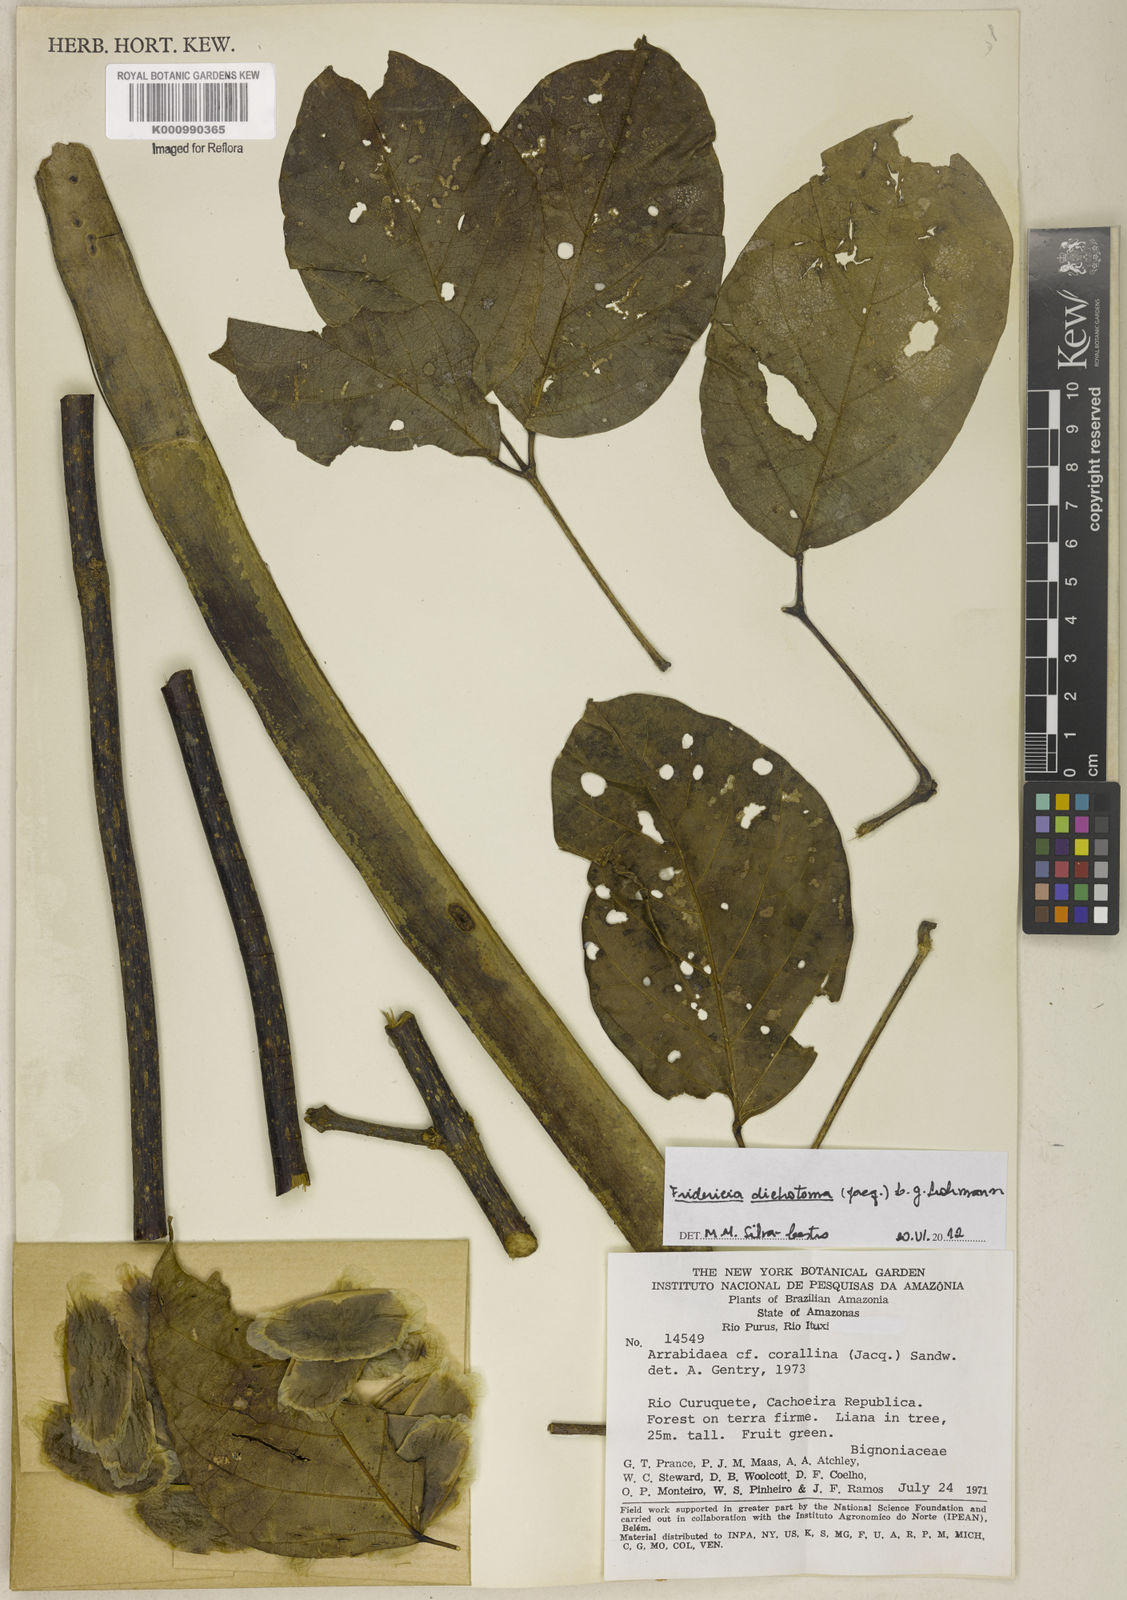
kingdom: Plantae
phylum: Tracheophyta
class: Magnoliopsida
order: Lamiales
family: Bignoniaceae
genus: Tanaecium
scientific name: Tanaecium dichotomum
